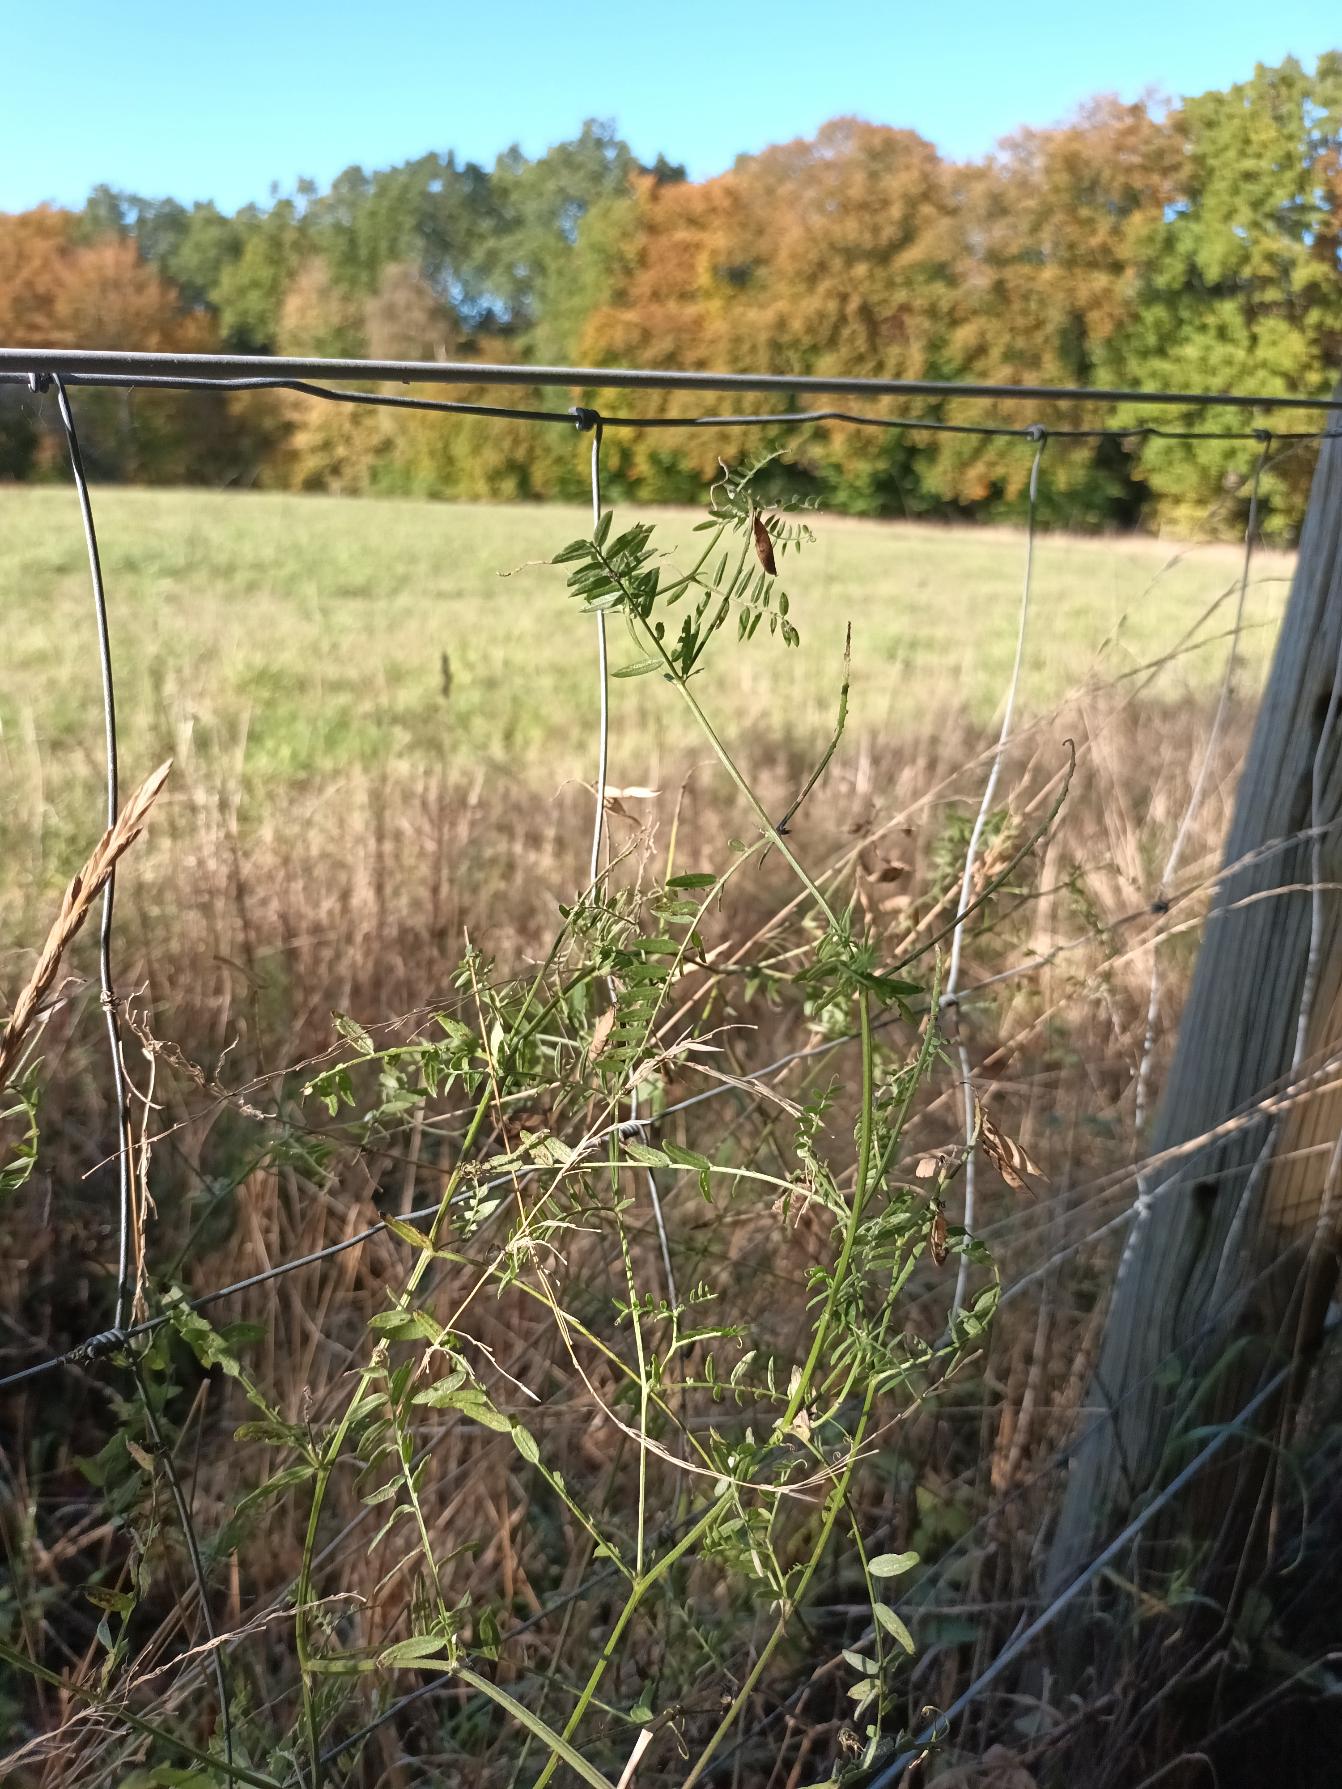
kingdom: Plantae
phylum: Tracheophyta
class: Magnoliopsida
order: Fabales
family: Fabaceae
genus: Vicia
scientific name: Vicia cracca
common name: Muse-vikke
